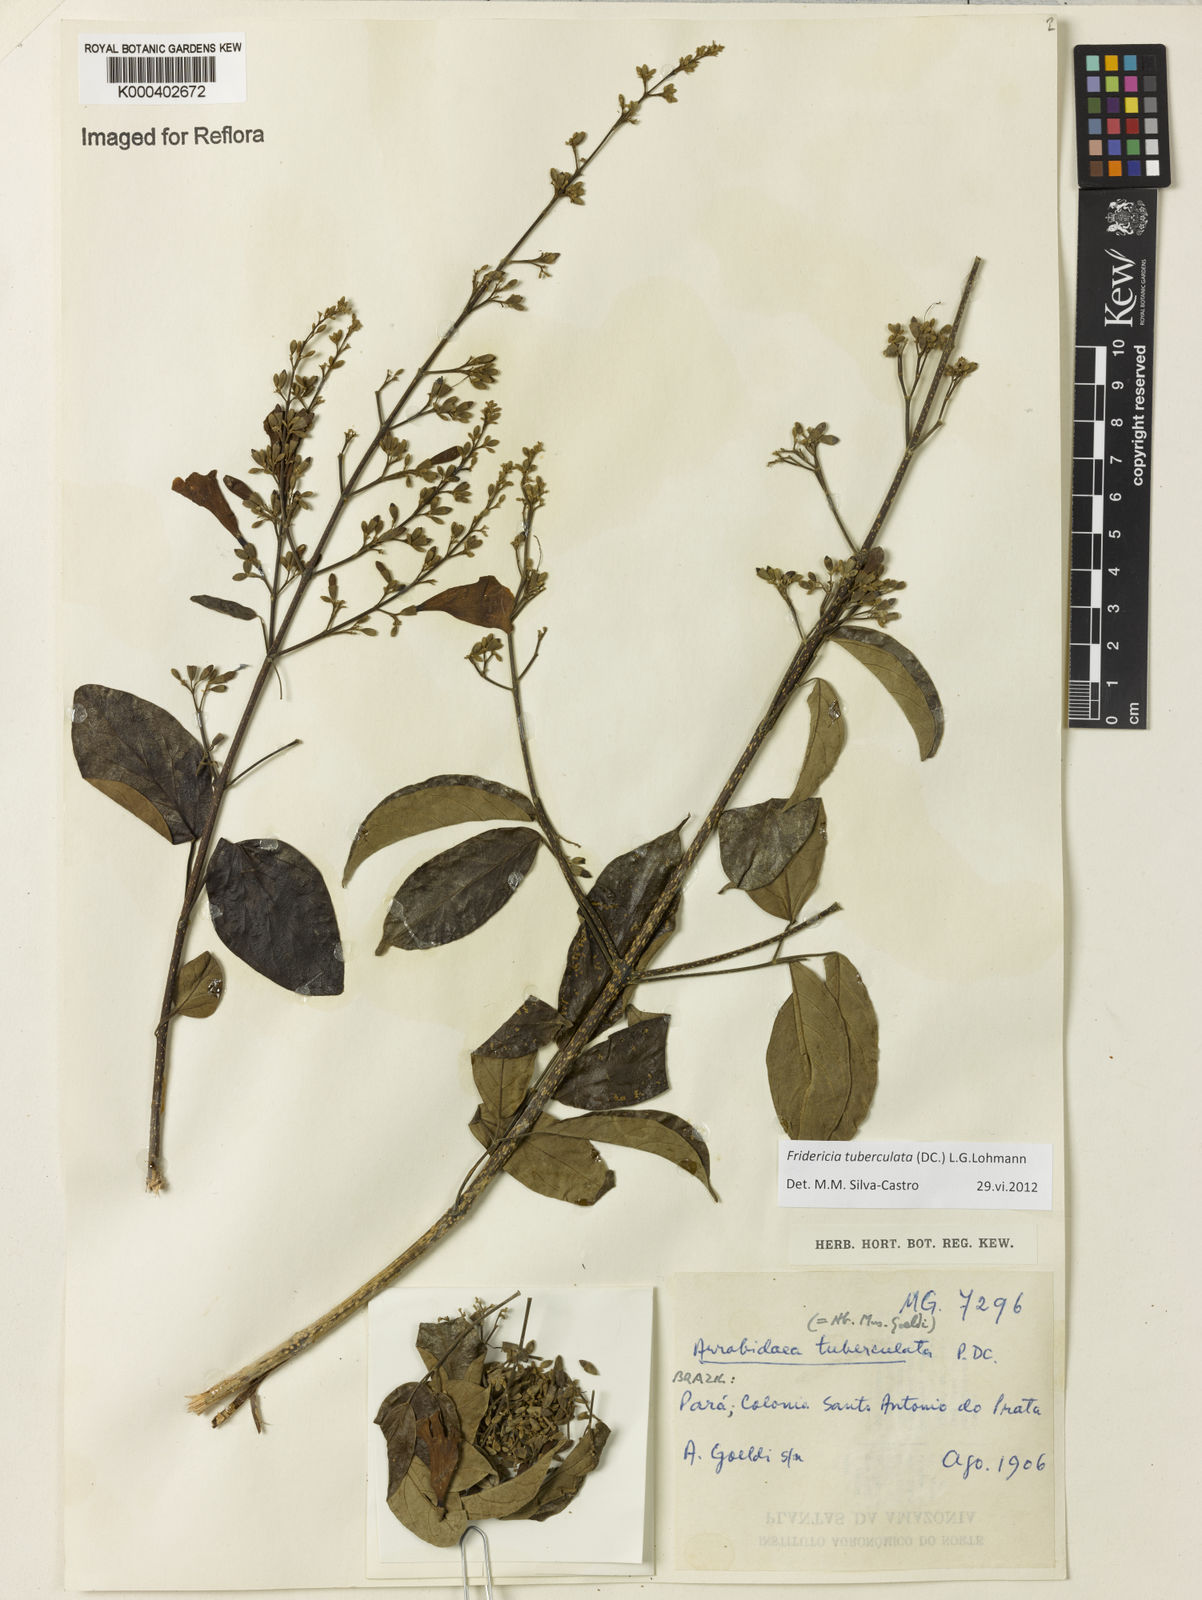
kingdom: Plantae
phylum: Tracheophyta
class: Magnoliopsida
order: Lamiales
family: Bignoniaceae
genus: Fridericia
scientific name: Fridericia tuberculata
